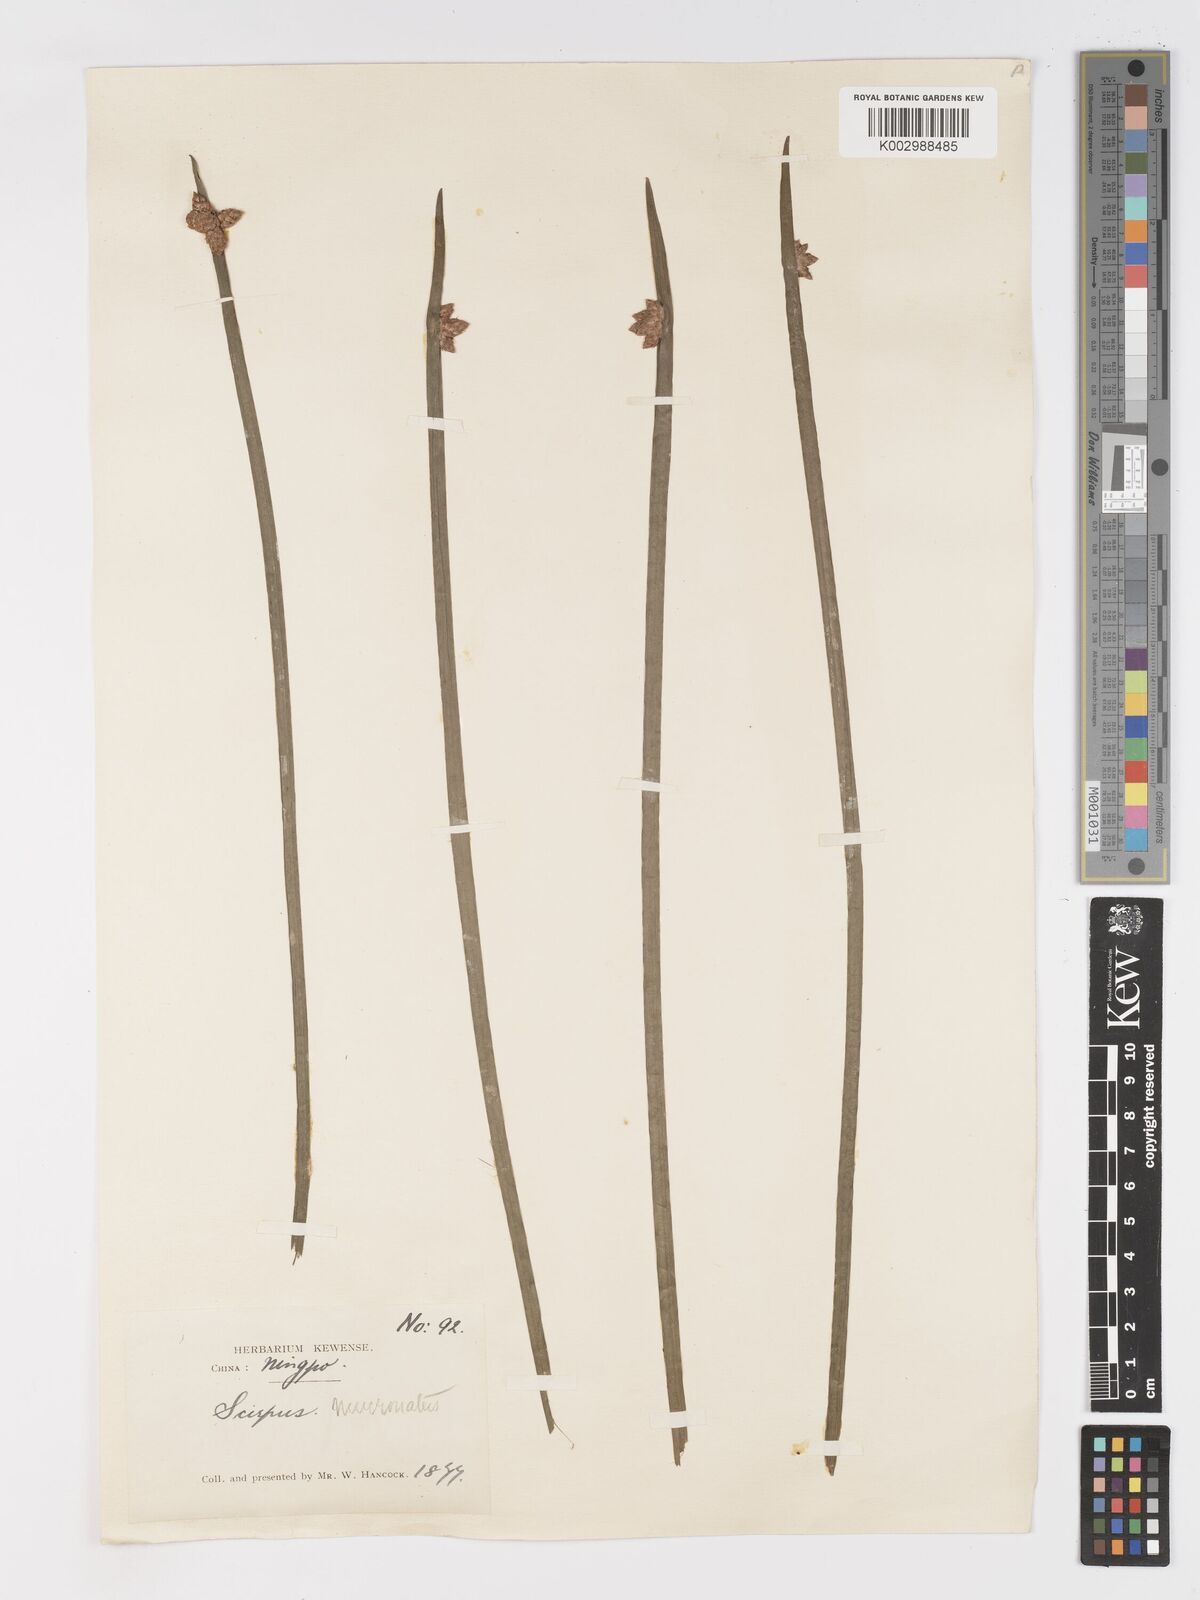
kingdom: Plantae
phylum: Tracheophyta
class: Liliopsida
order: Poales
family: Cyperaceae
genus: Schoenoplectiella
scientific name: Schoenoplectiella mucronata
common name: Bog bulrush
